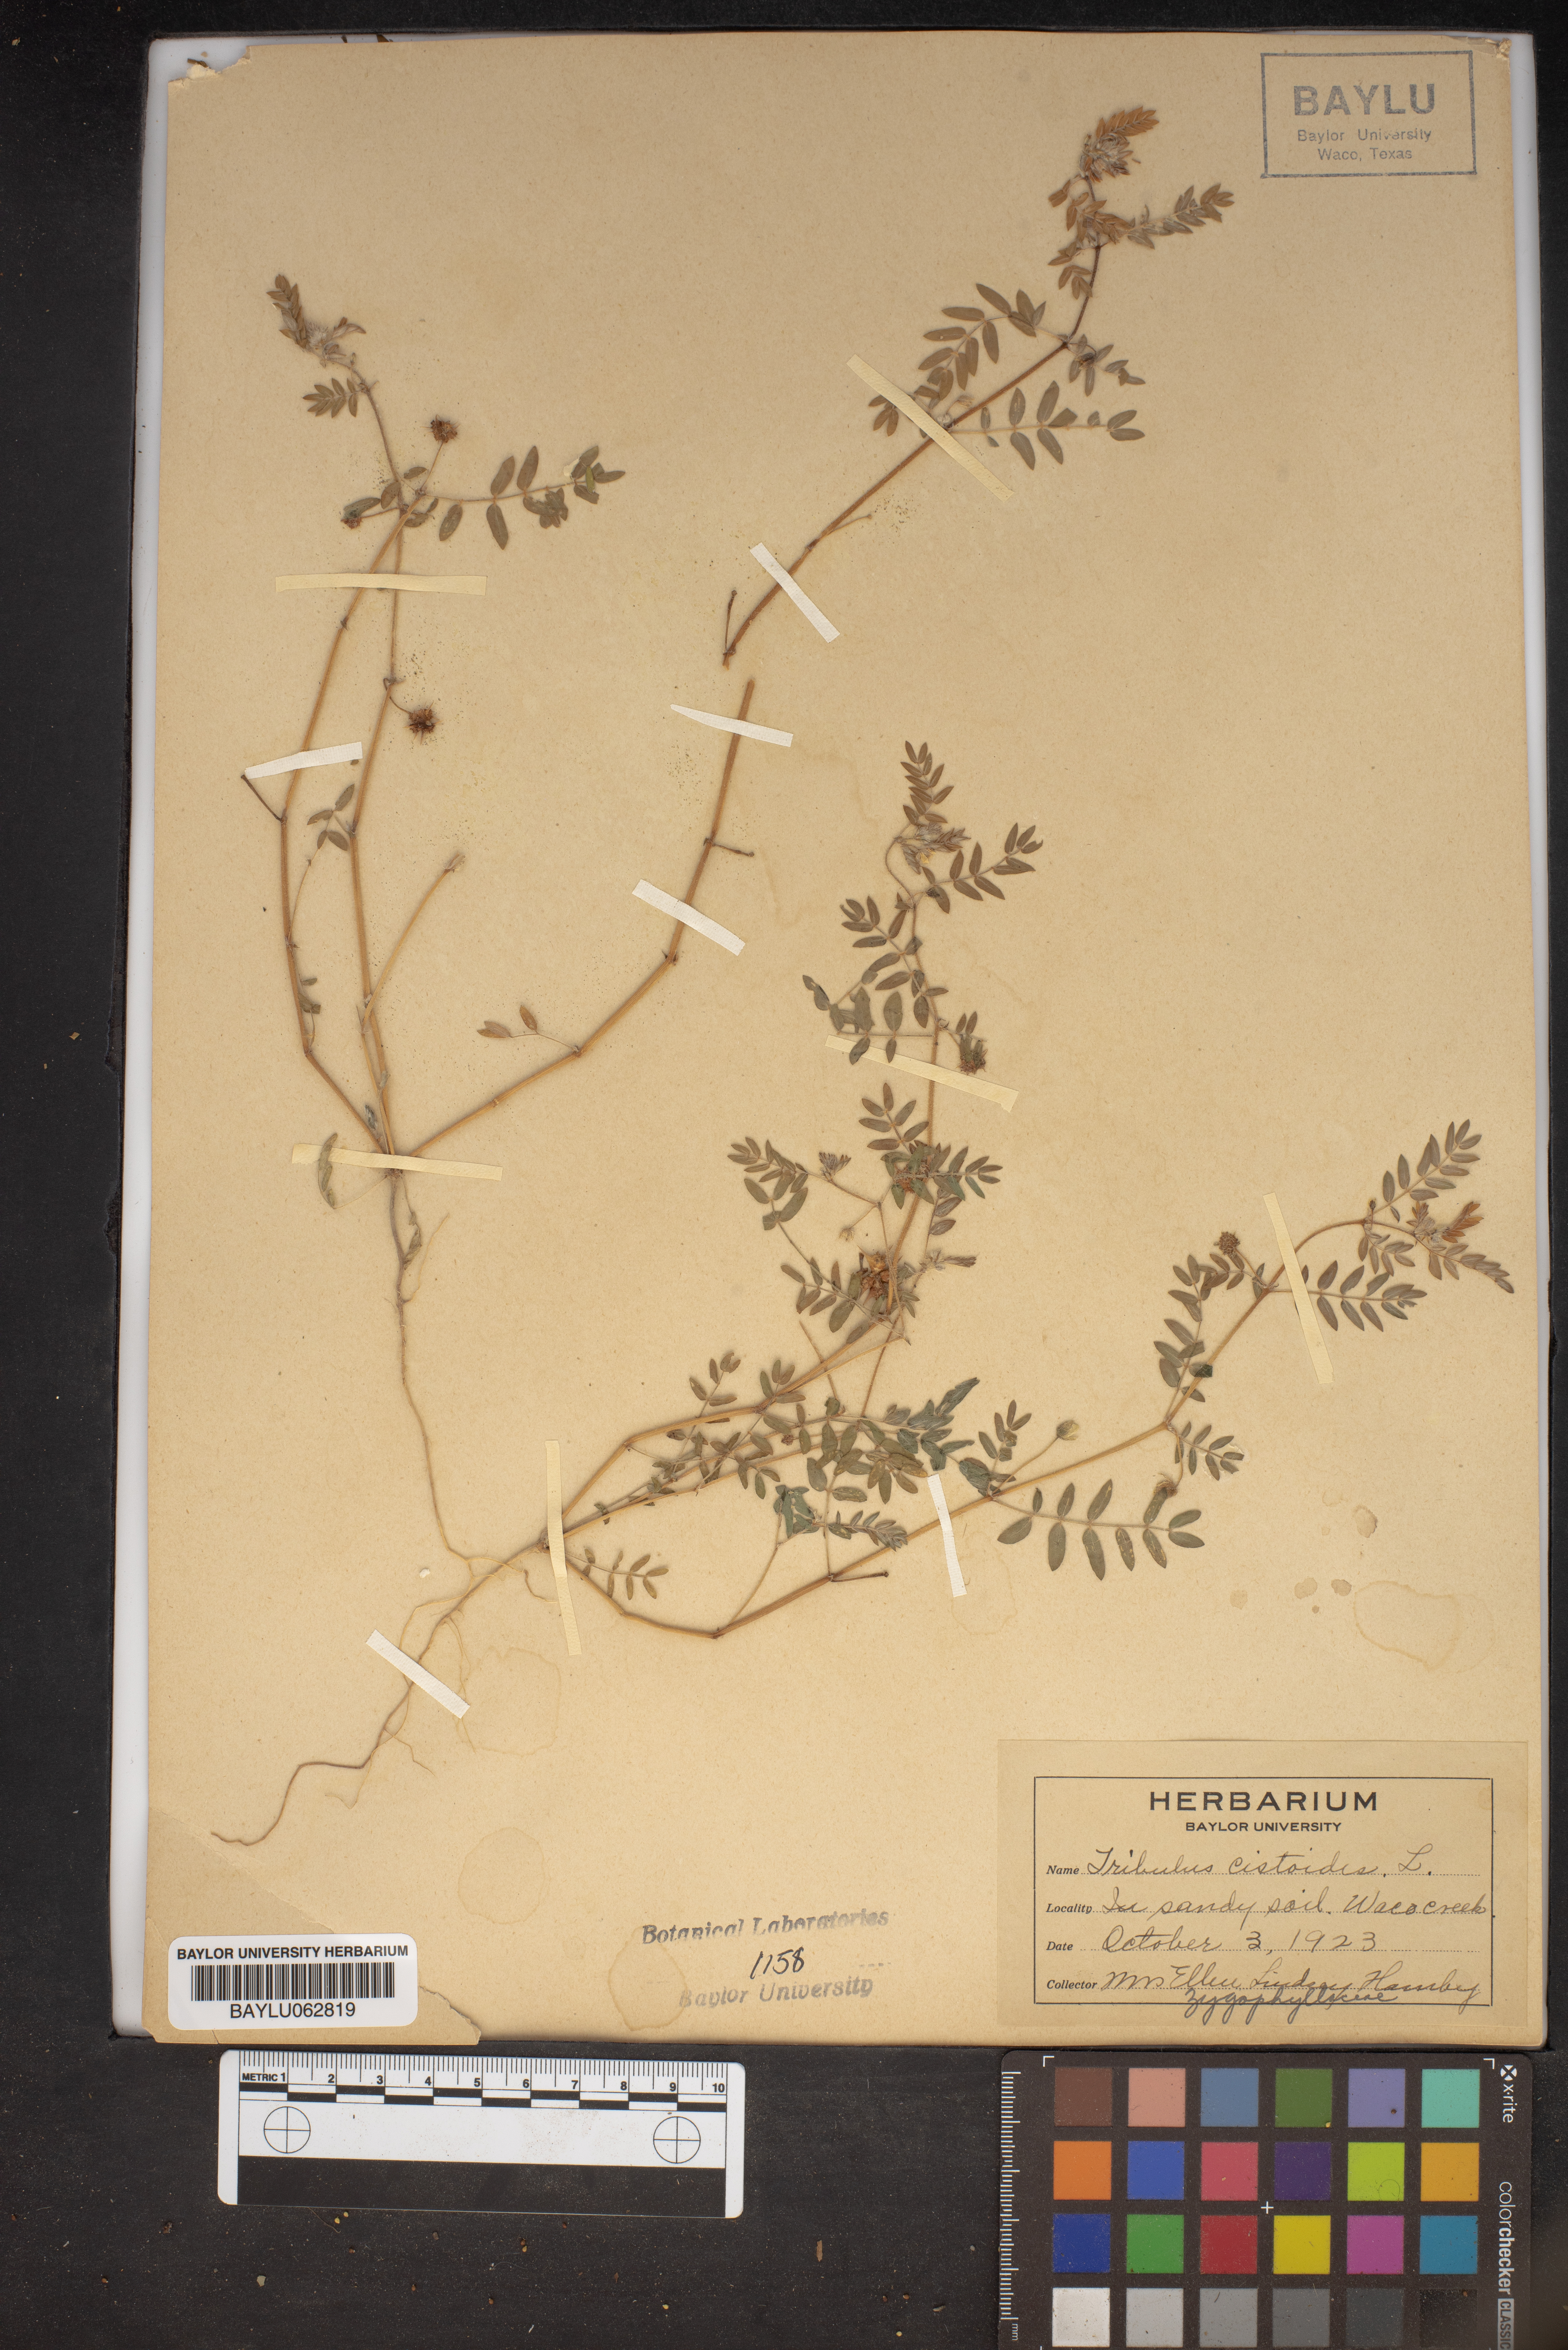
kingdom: Plantae
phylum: Tracheophyta
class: Magnoliopsida
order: Zygophyllales
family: Zygophyllaceae
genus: Tribulus
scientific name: Tribulus cistoides
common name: Jamaican feverplant
